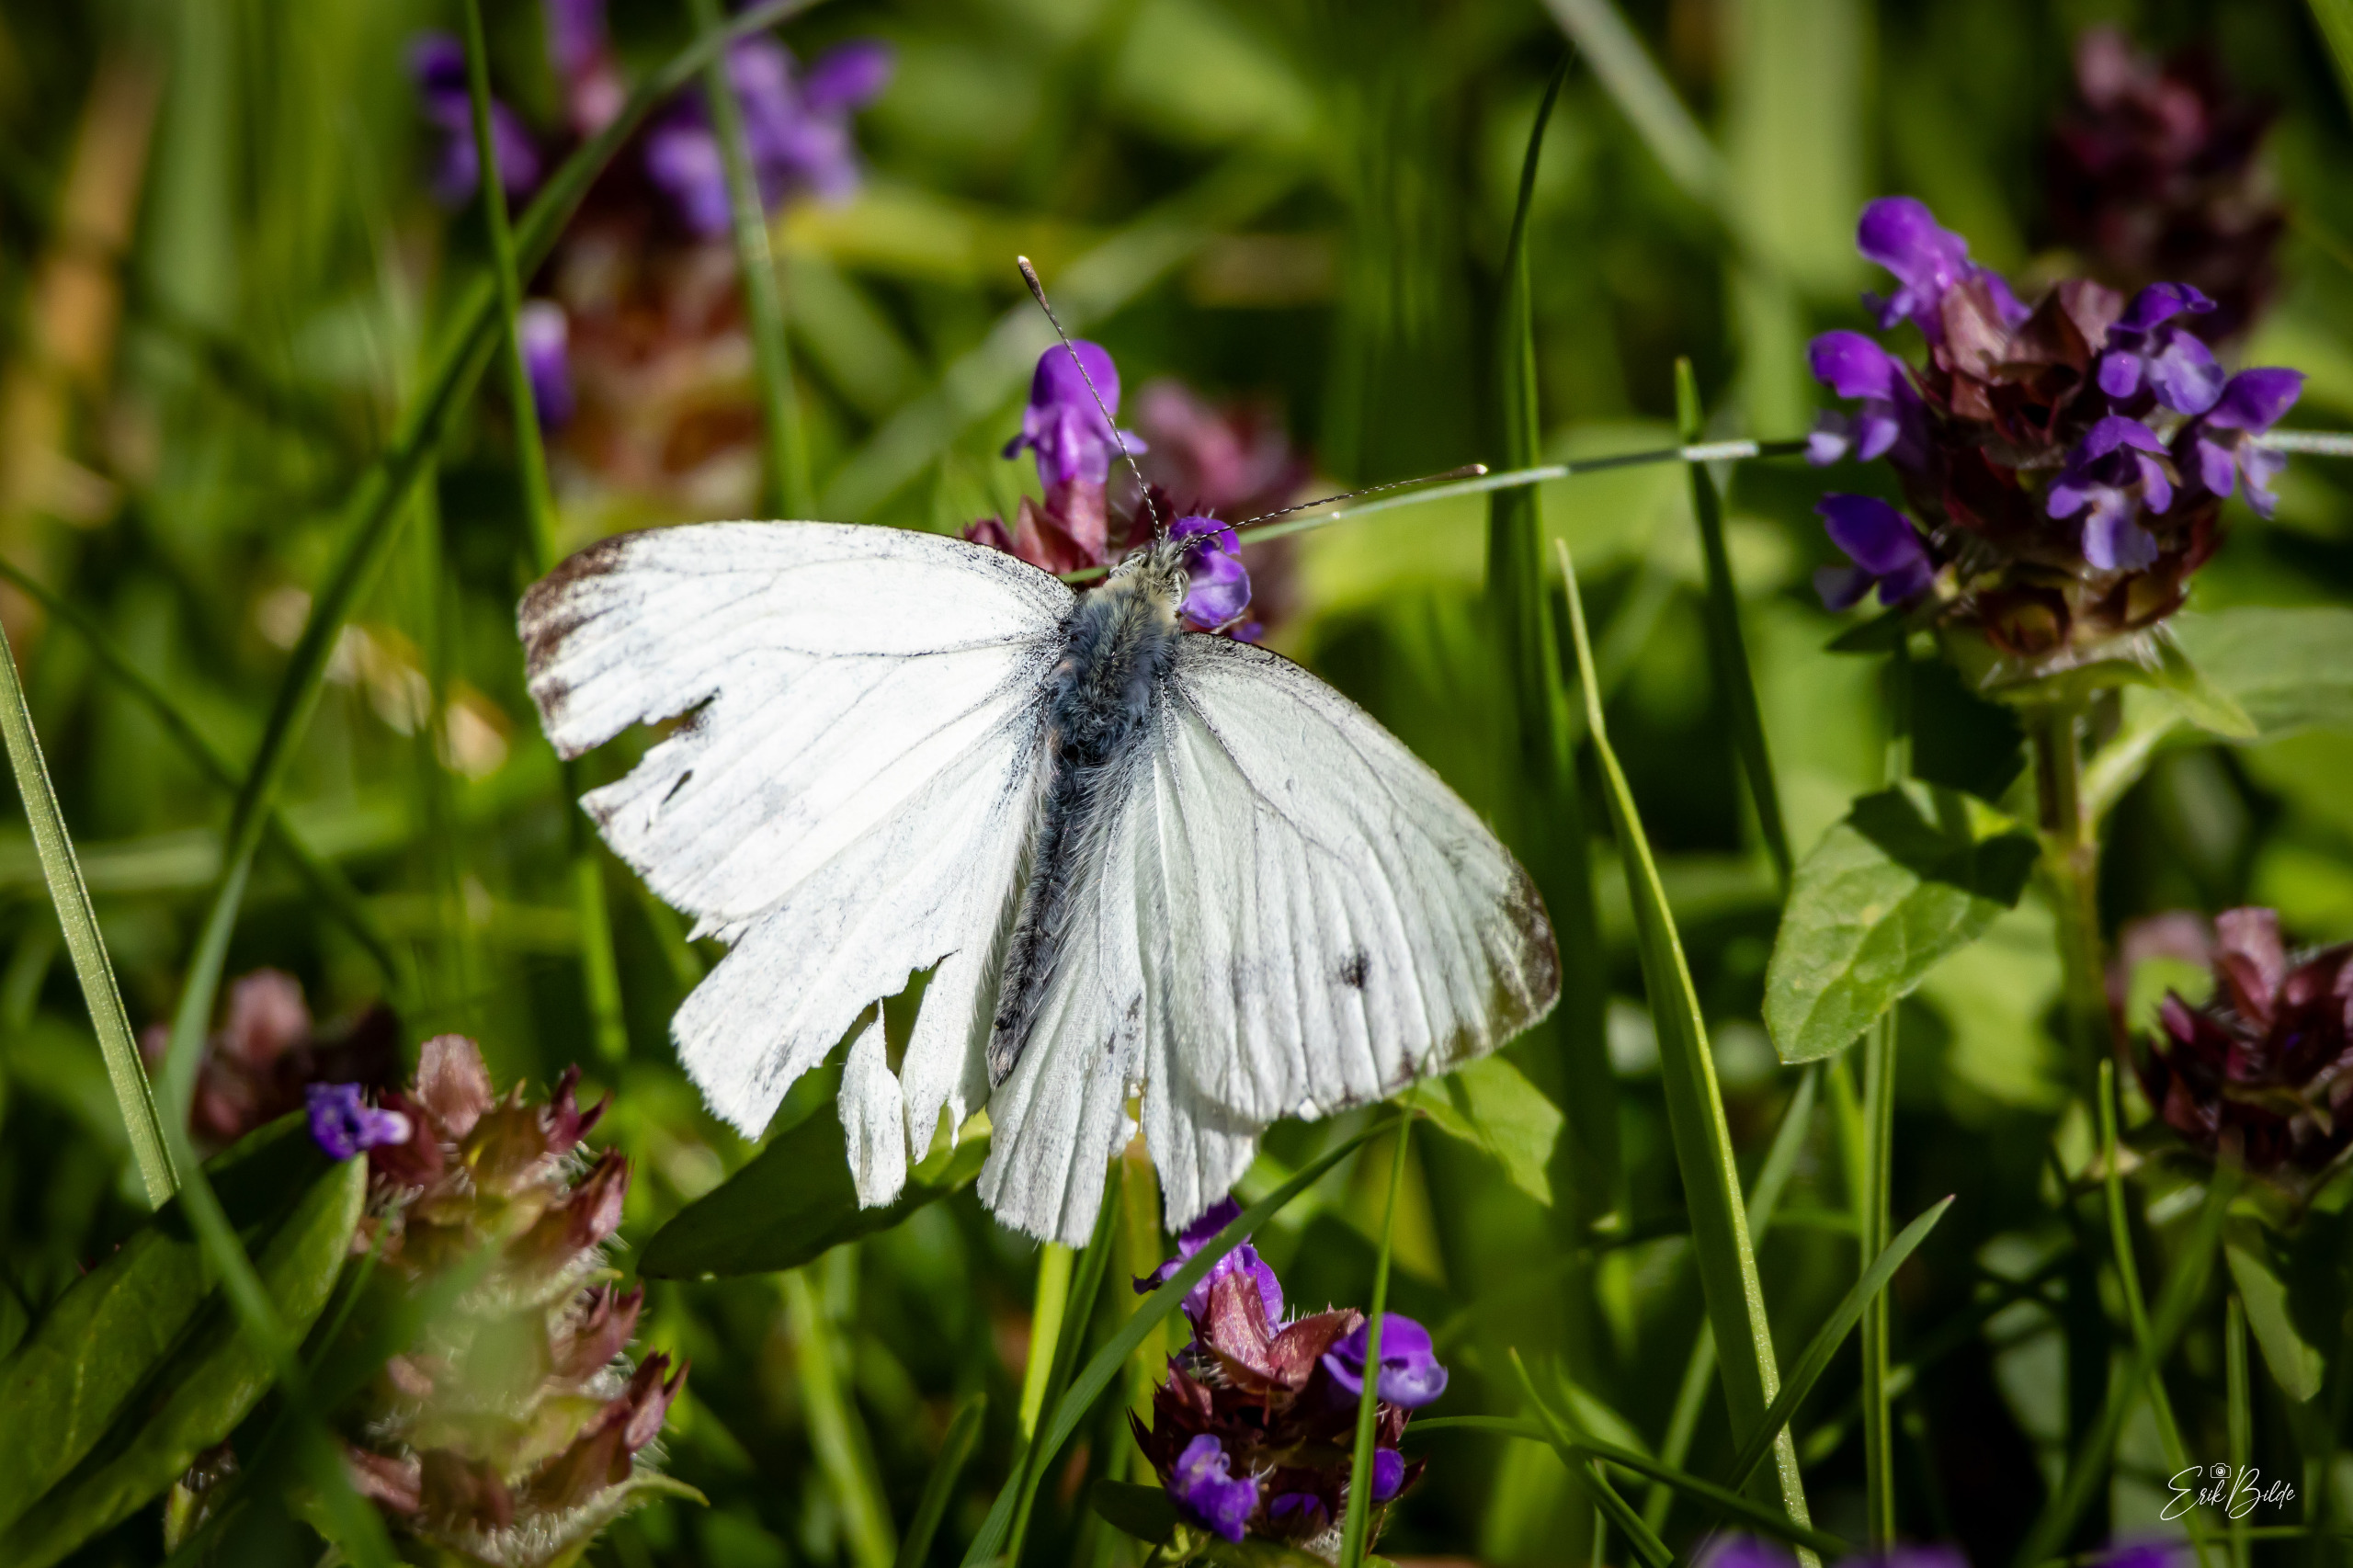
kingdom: Animalia
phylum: Arthropoda
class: Insecta
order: Lepidoptera
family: Pieridae
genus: Pieris
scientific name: Pieris napi
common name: Grønåret kålsommerfugl
